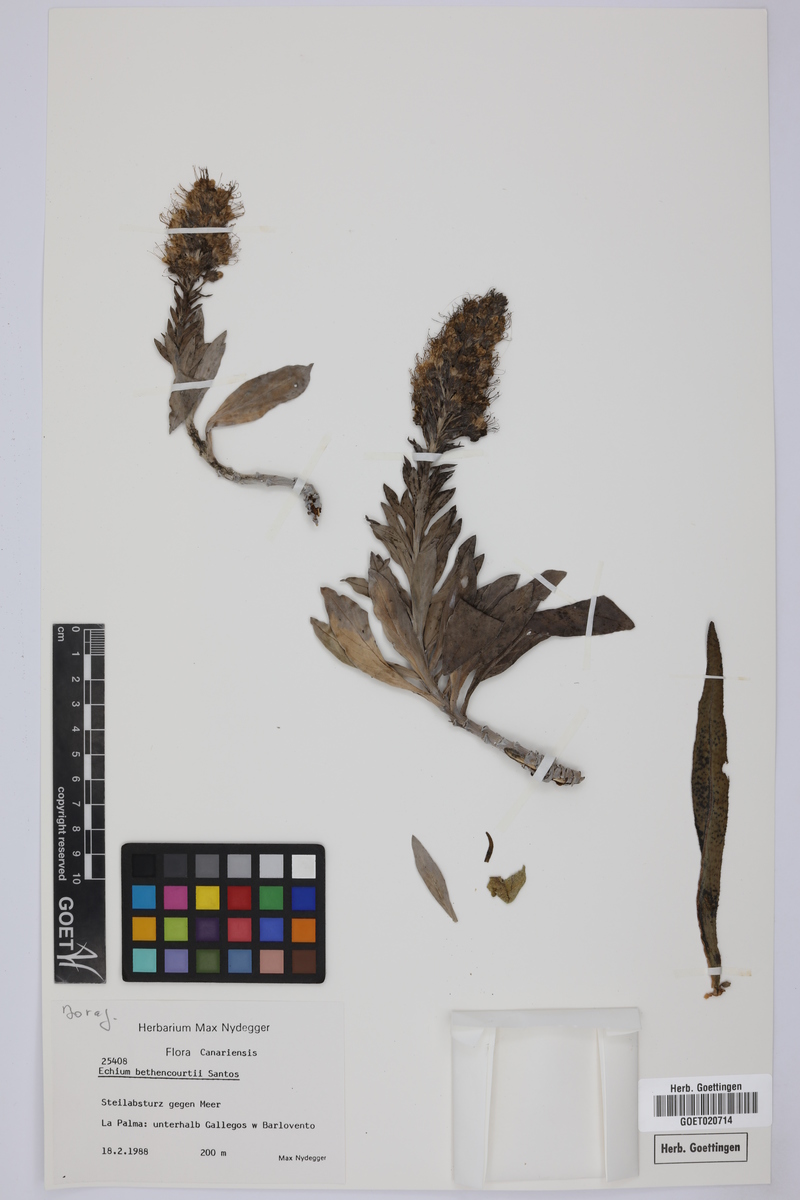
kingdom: Plantae
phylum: Tracheophyta
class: Magnoliopsida
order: Boraginales
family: Boraginaceae
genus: Echium
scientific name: Echium bethencourtii
